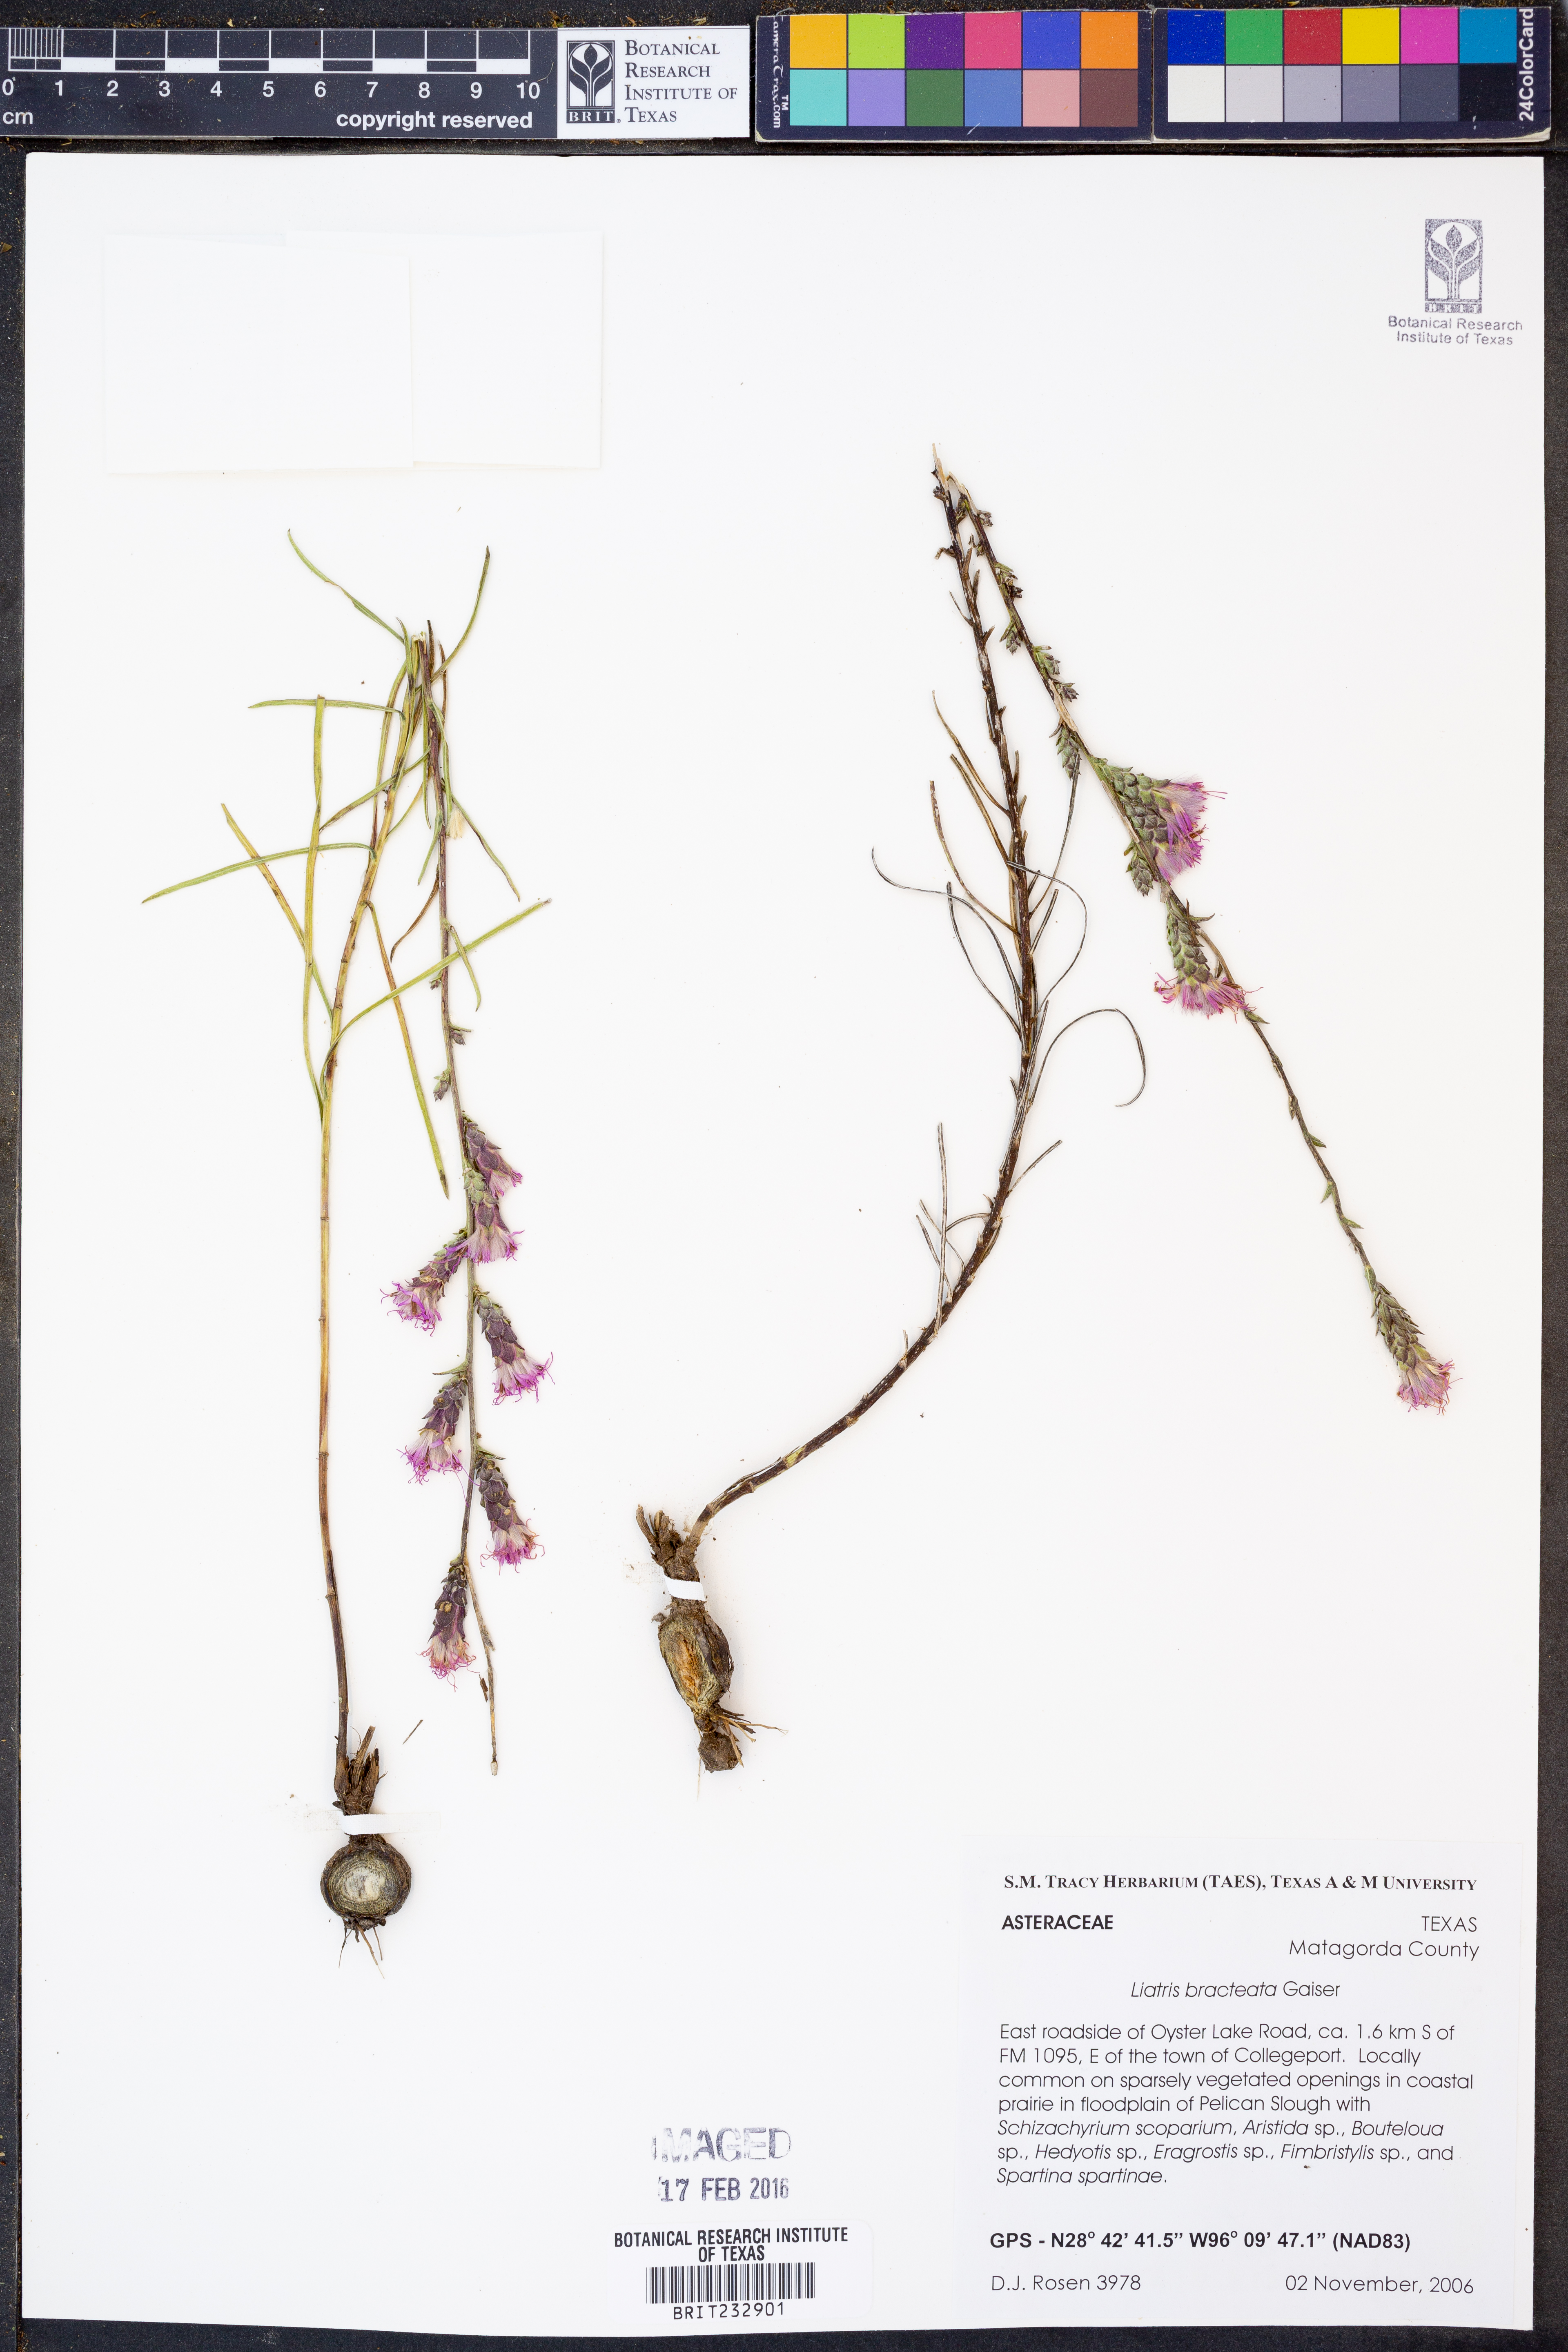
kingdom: Plantae
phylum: Tracheophyta
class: Magnoliopsida
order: Asterales
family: Asteraceae
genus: Liatris
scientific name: Liatris bracteata
